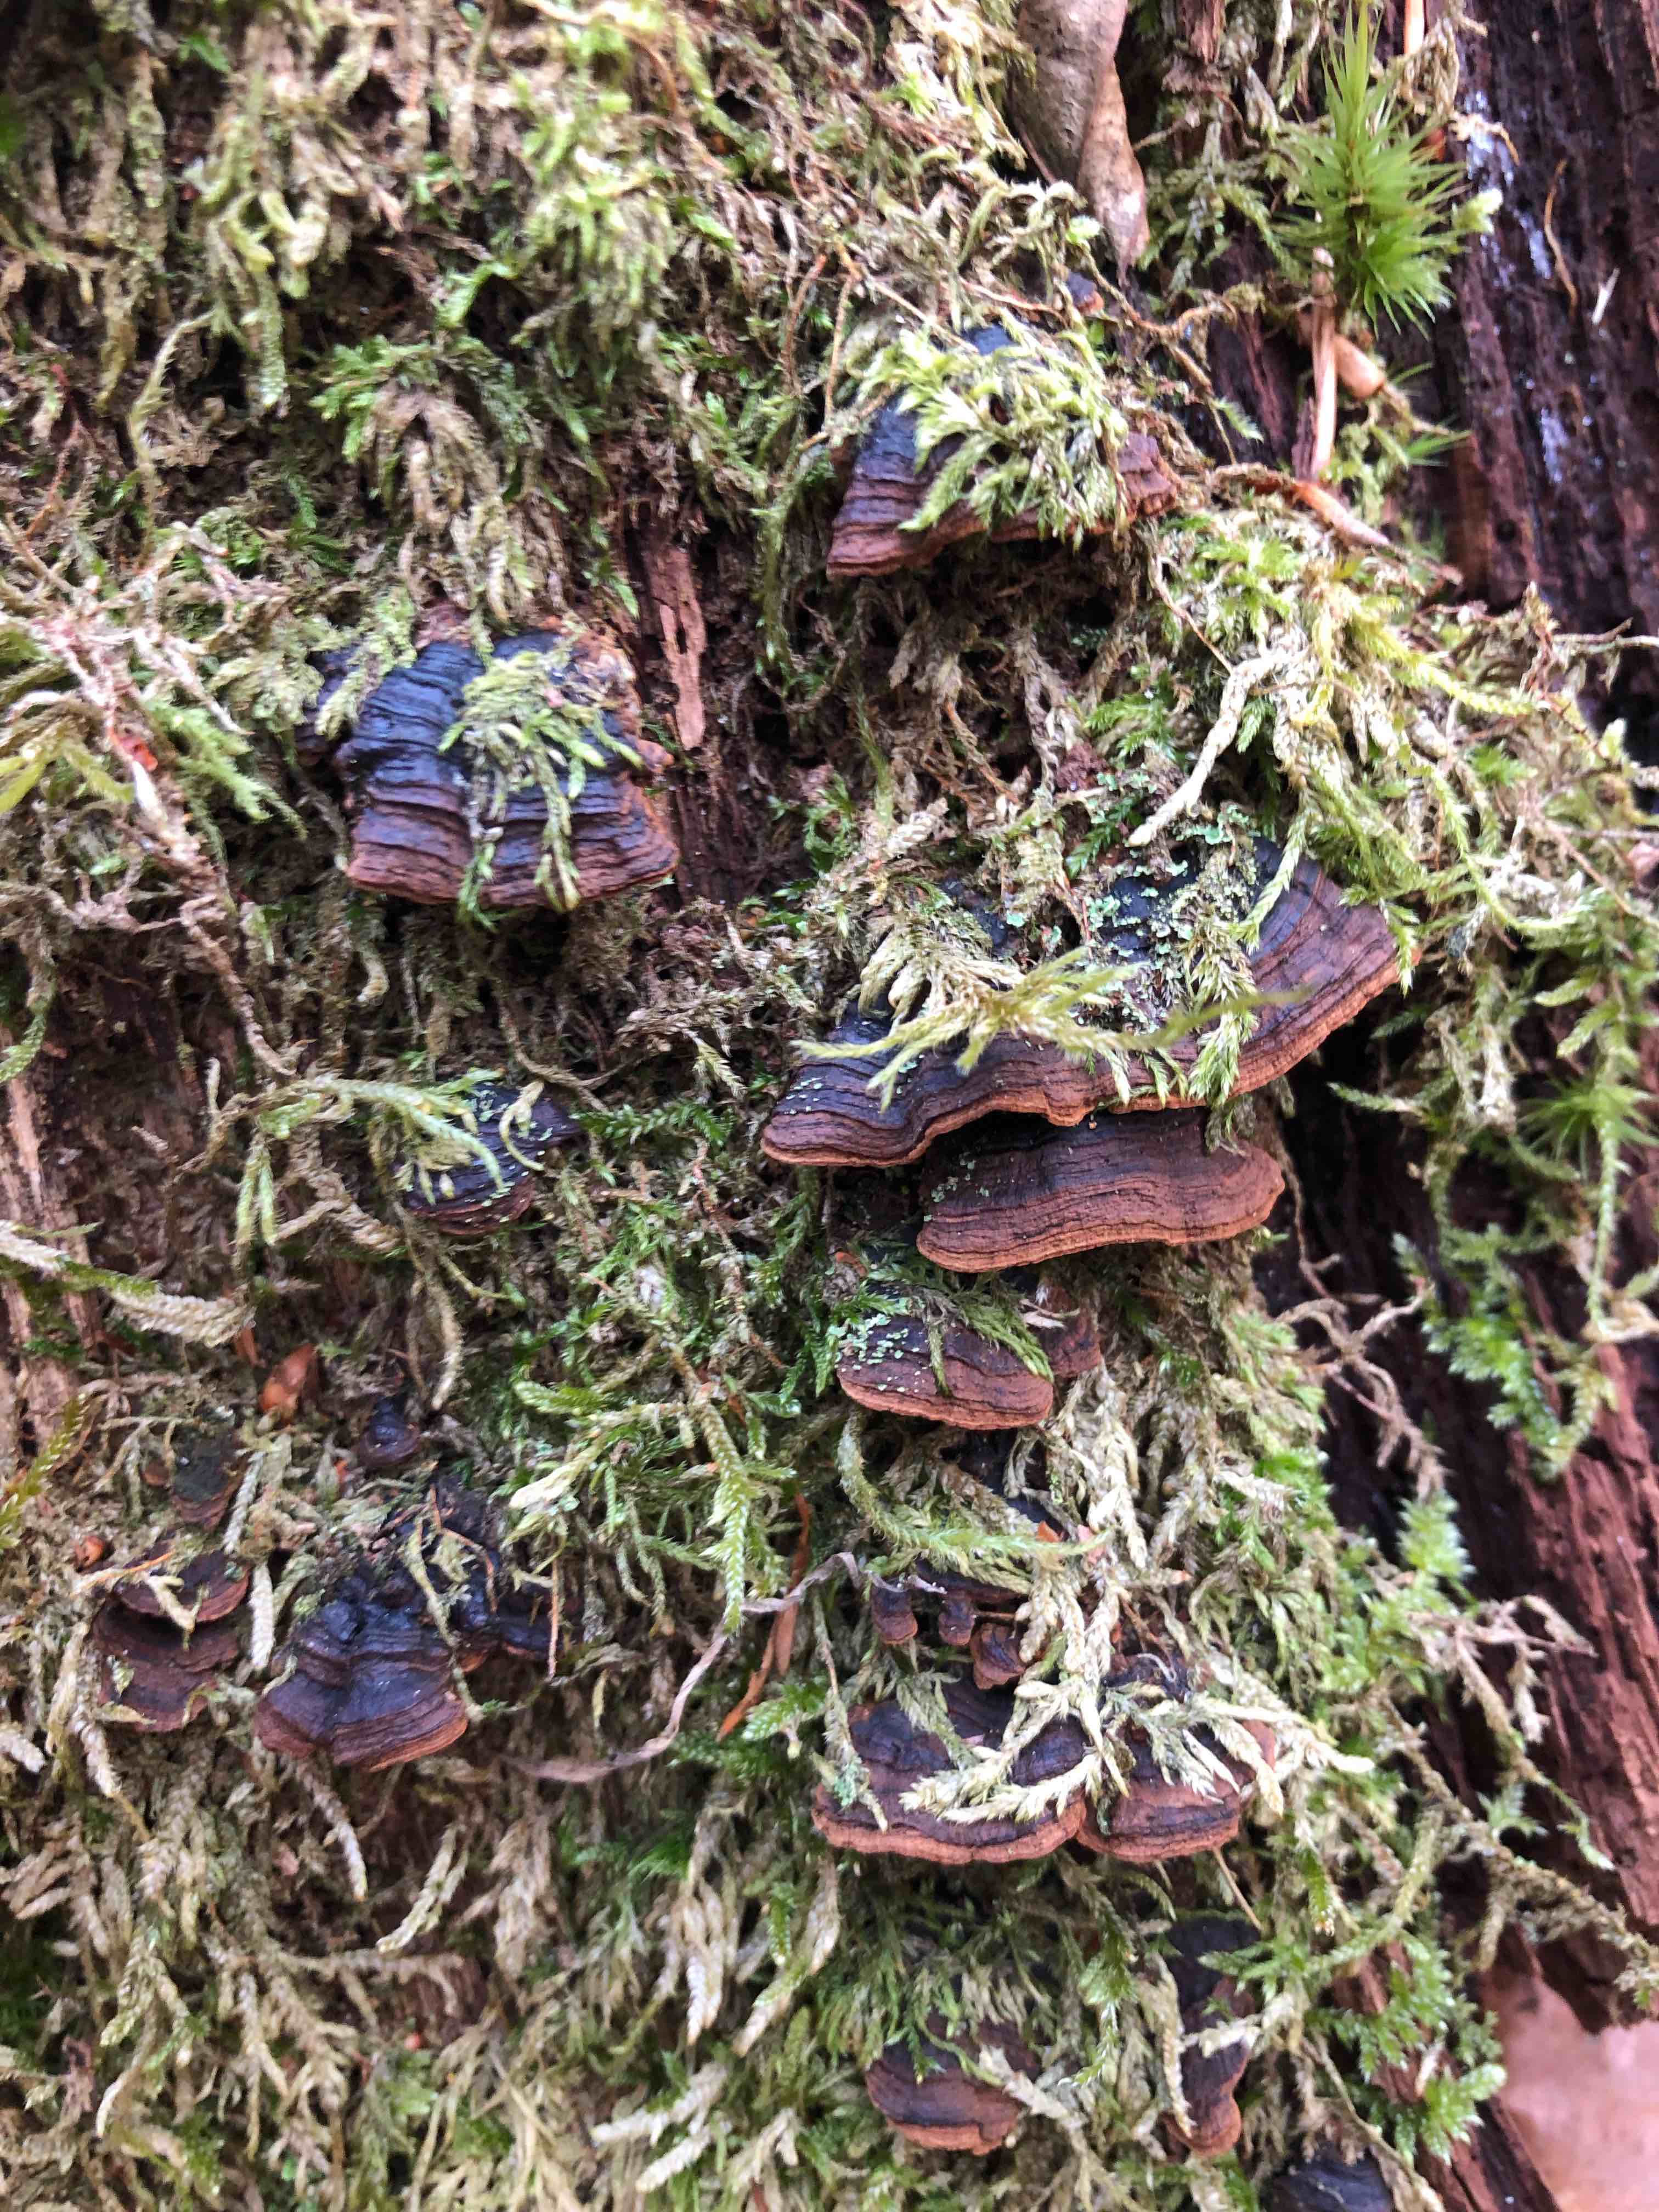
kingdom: Fungi
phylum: Basidiomycota
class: Agaricomycetes
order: Hymenochaetales
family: Hymenochaetaceae
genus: Hymenochaete
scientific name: Hymenochaete rubiginosa
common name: stiv ruslædersvamp
